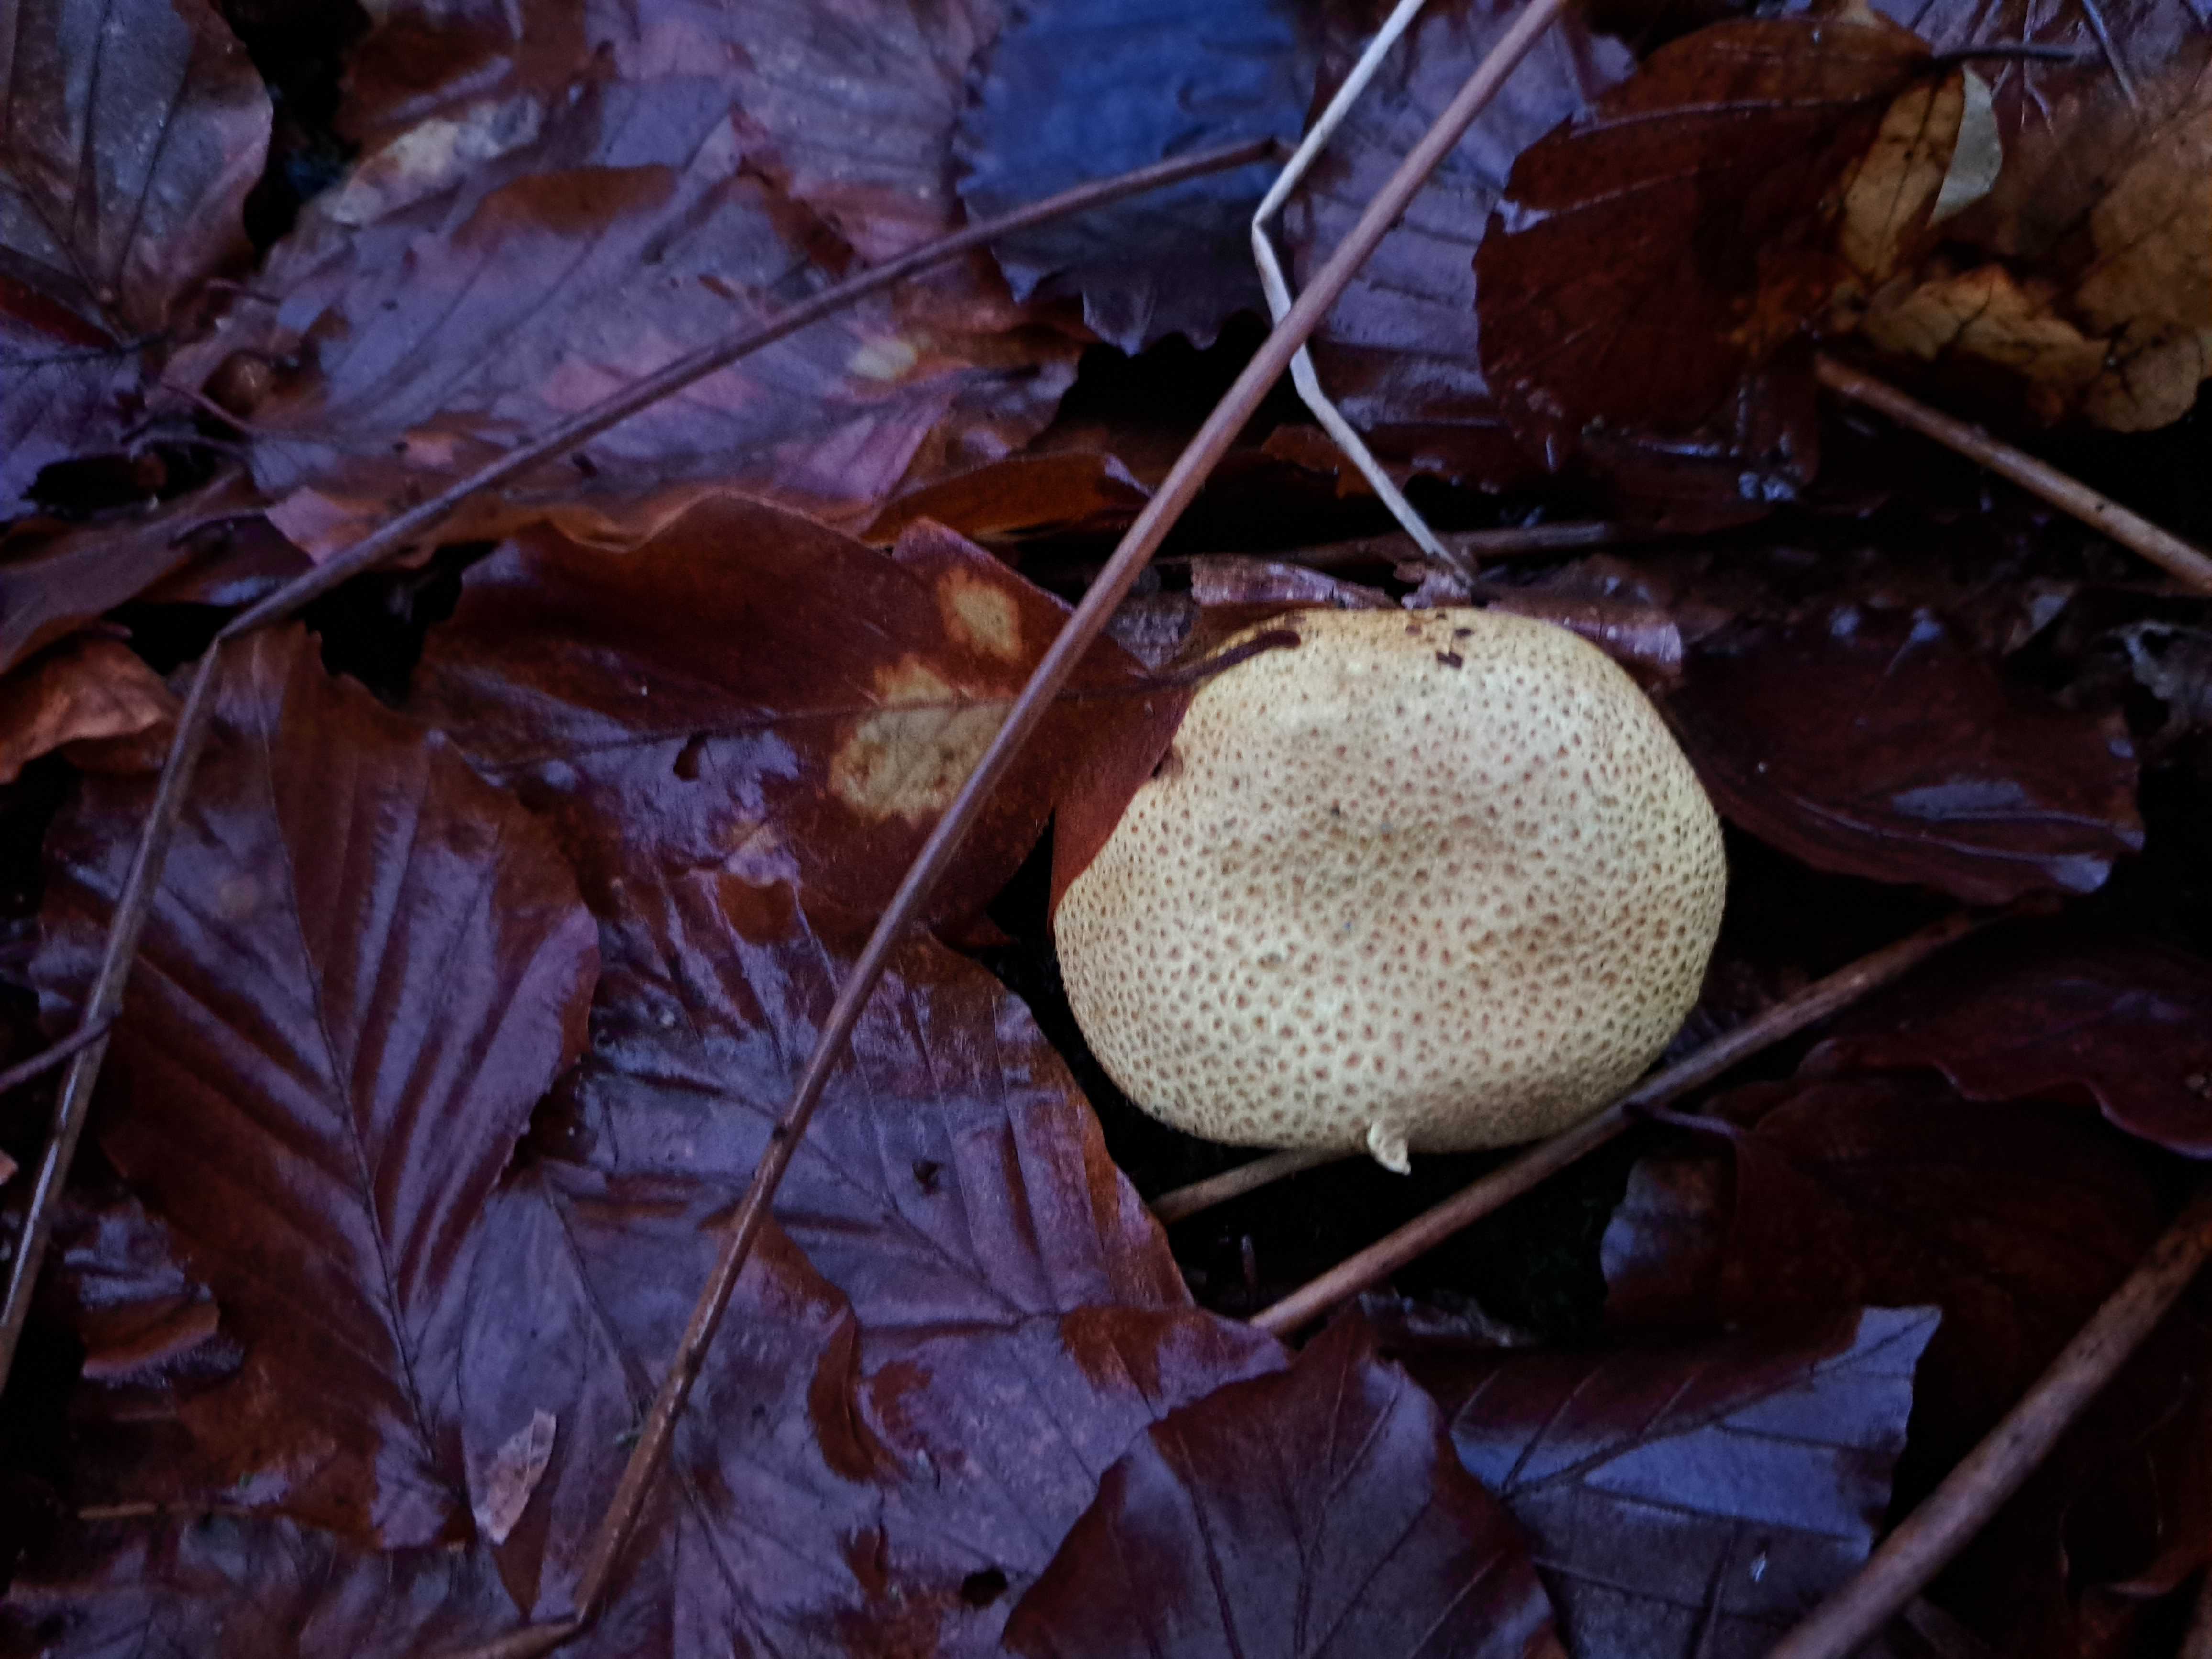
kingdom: Fungi
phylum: Basidiomycota
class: Agaricomycetes
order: Boletales
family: Sclerodermataceae
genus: Scleroderma
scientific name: Scleroderma citrinum
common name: almindelig bruskbold
